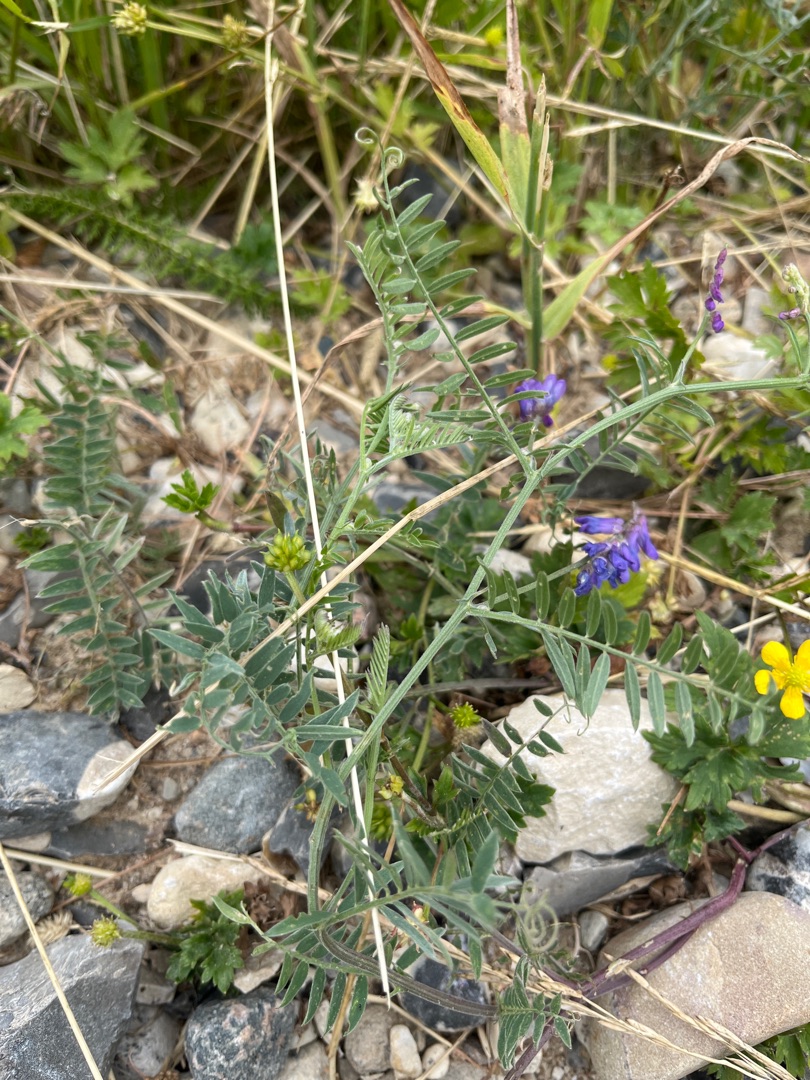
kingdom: Plantae
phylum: Tracheophyta
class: Magnoliopsida
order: Fabales
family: Fabaceae
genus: Vicia
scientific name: Vicia cracca
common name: Muse-vikke
